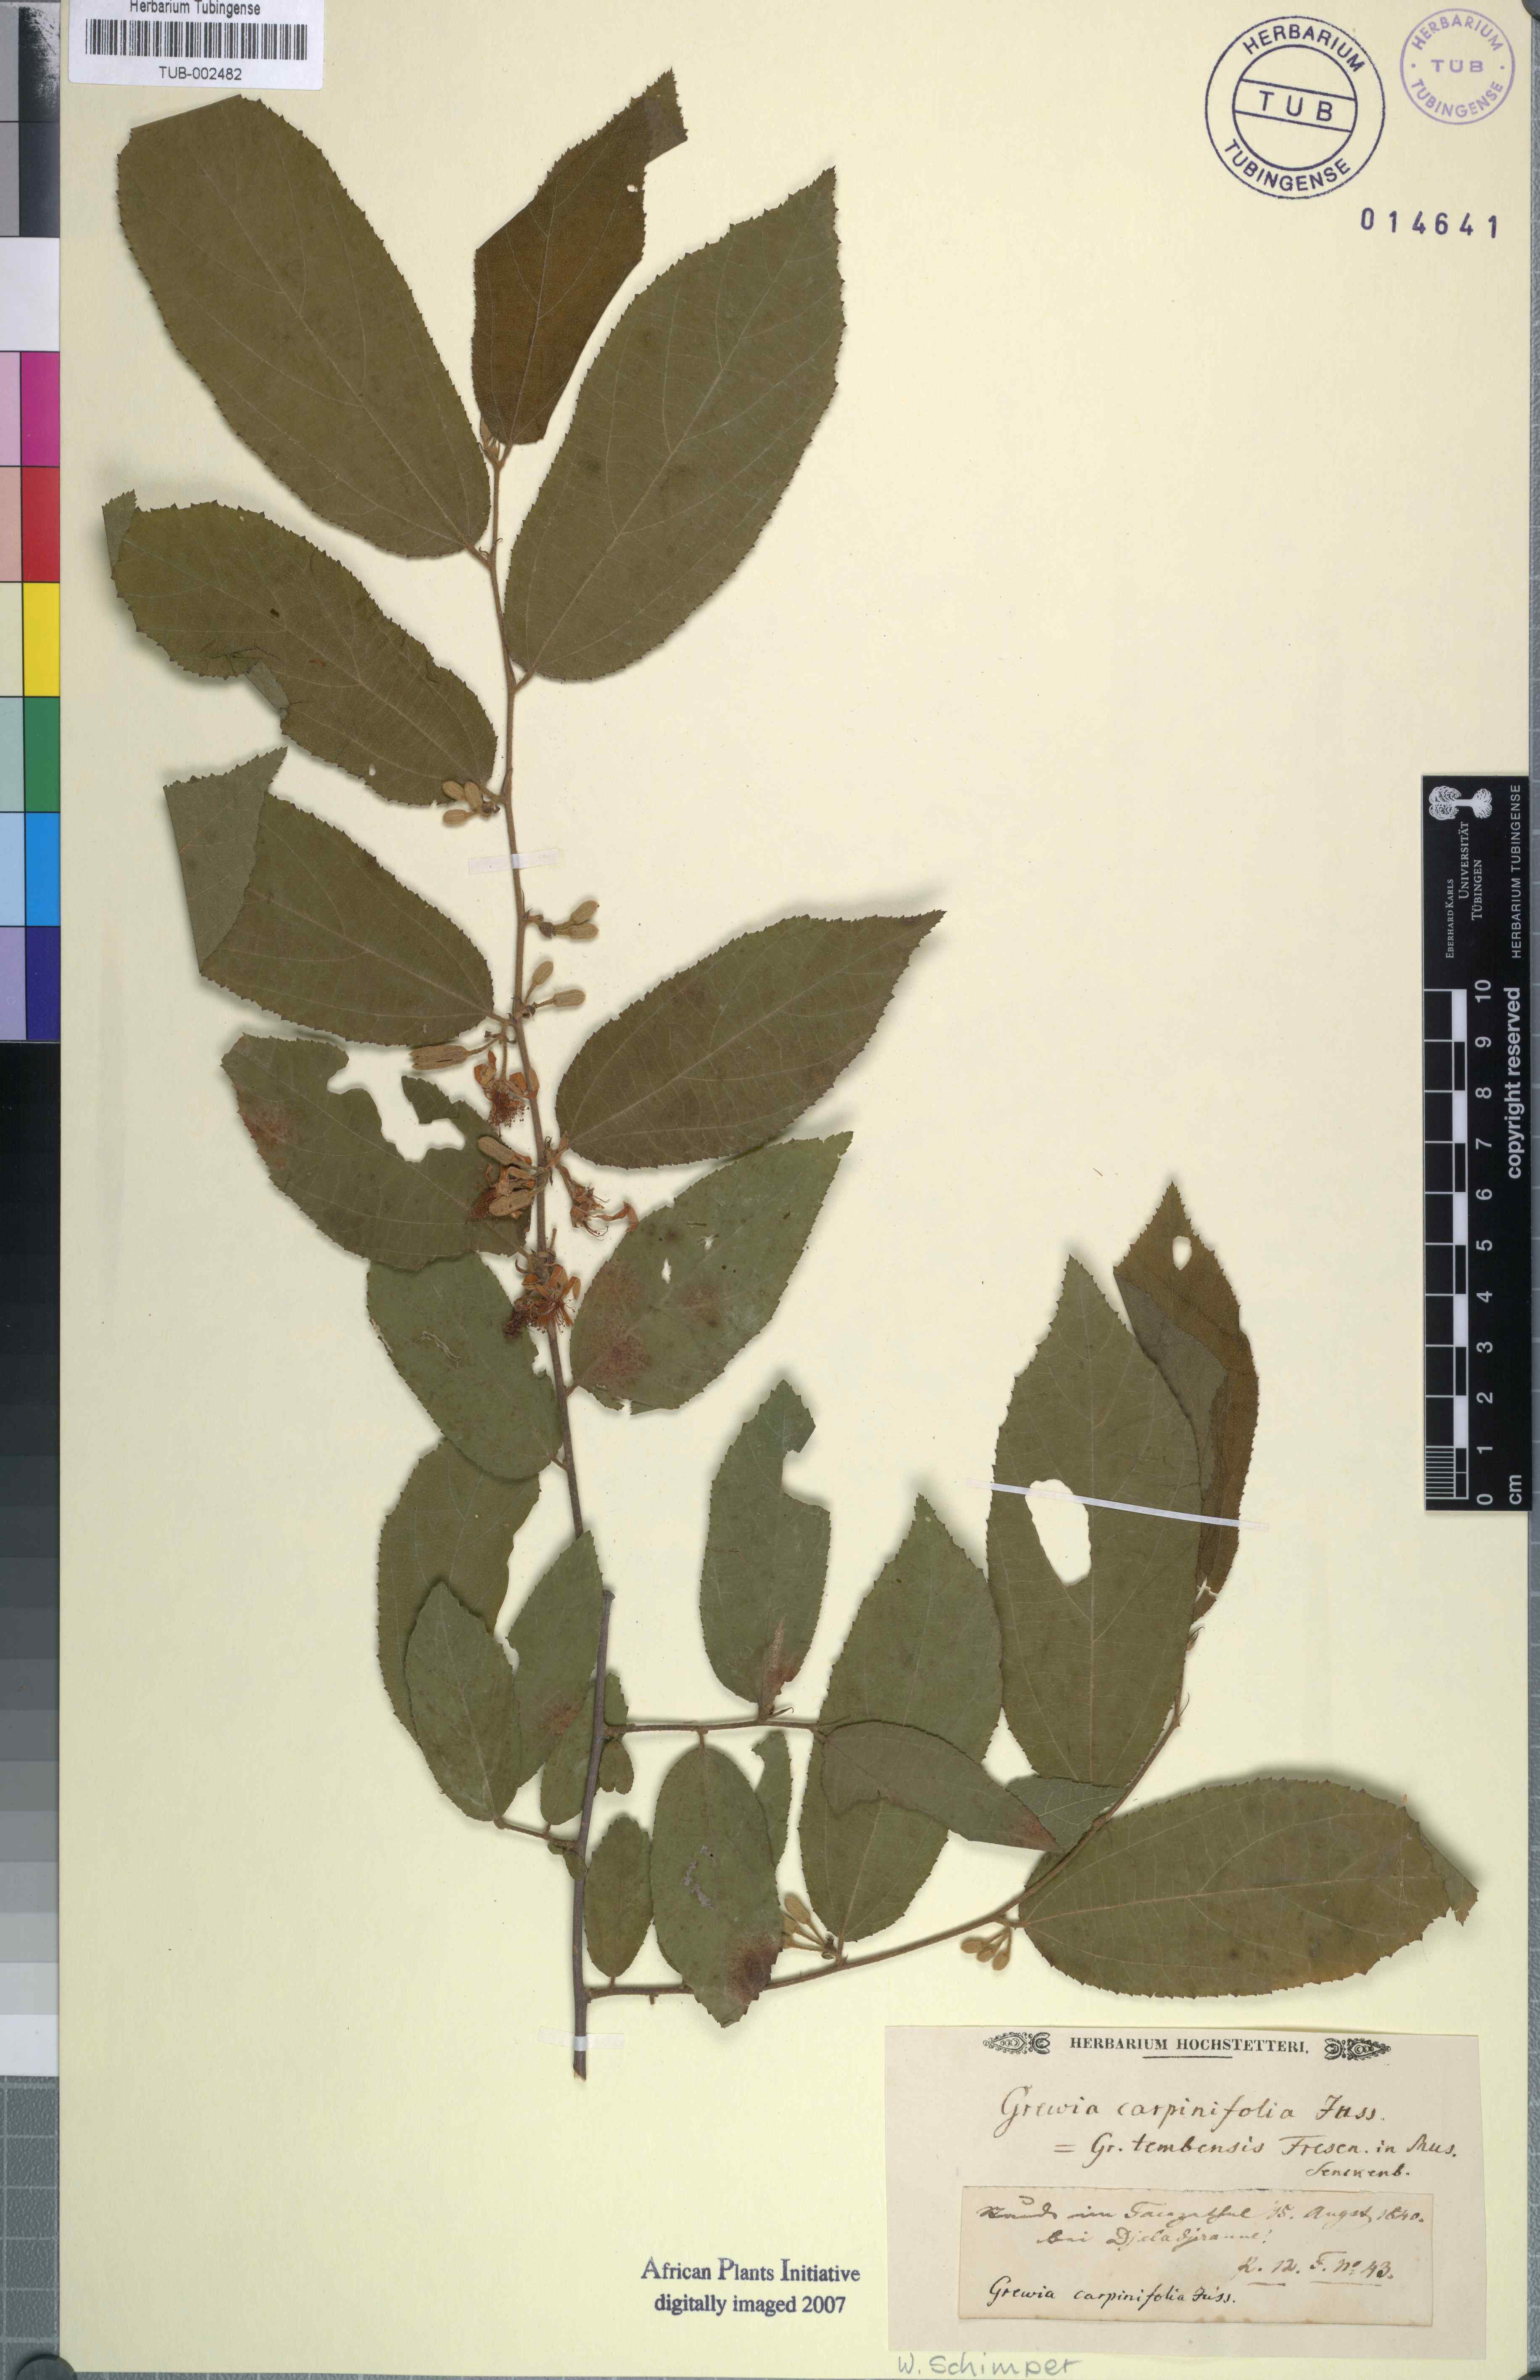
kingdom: Plantae
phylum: Tracheophyta
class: Magnoliopsida
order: Malvales
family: Malvaceae
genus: Grewia
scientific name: Grewia carpinifolia
